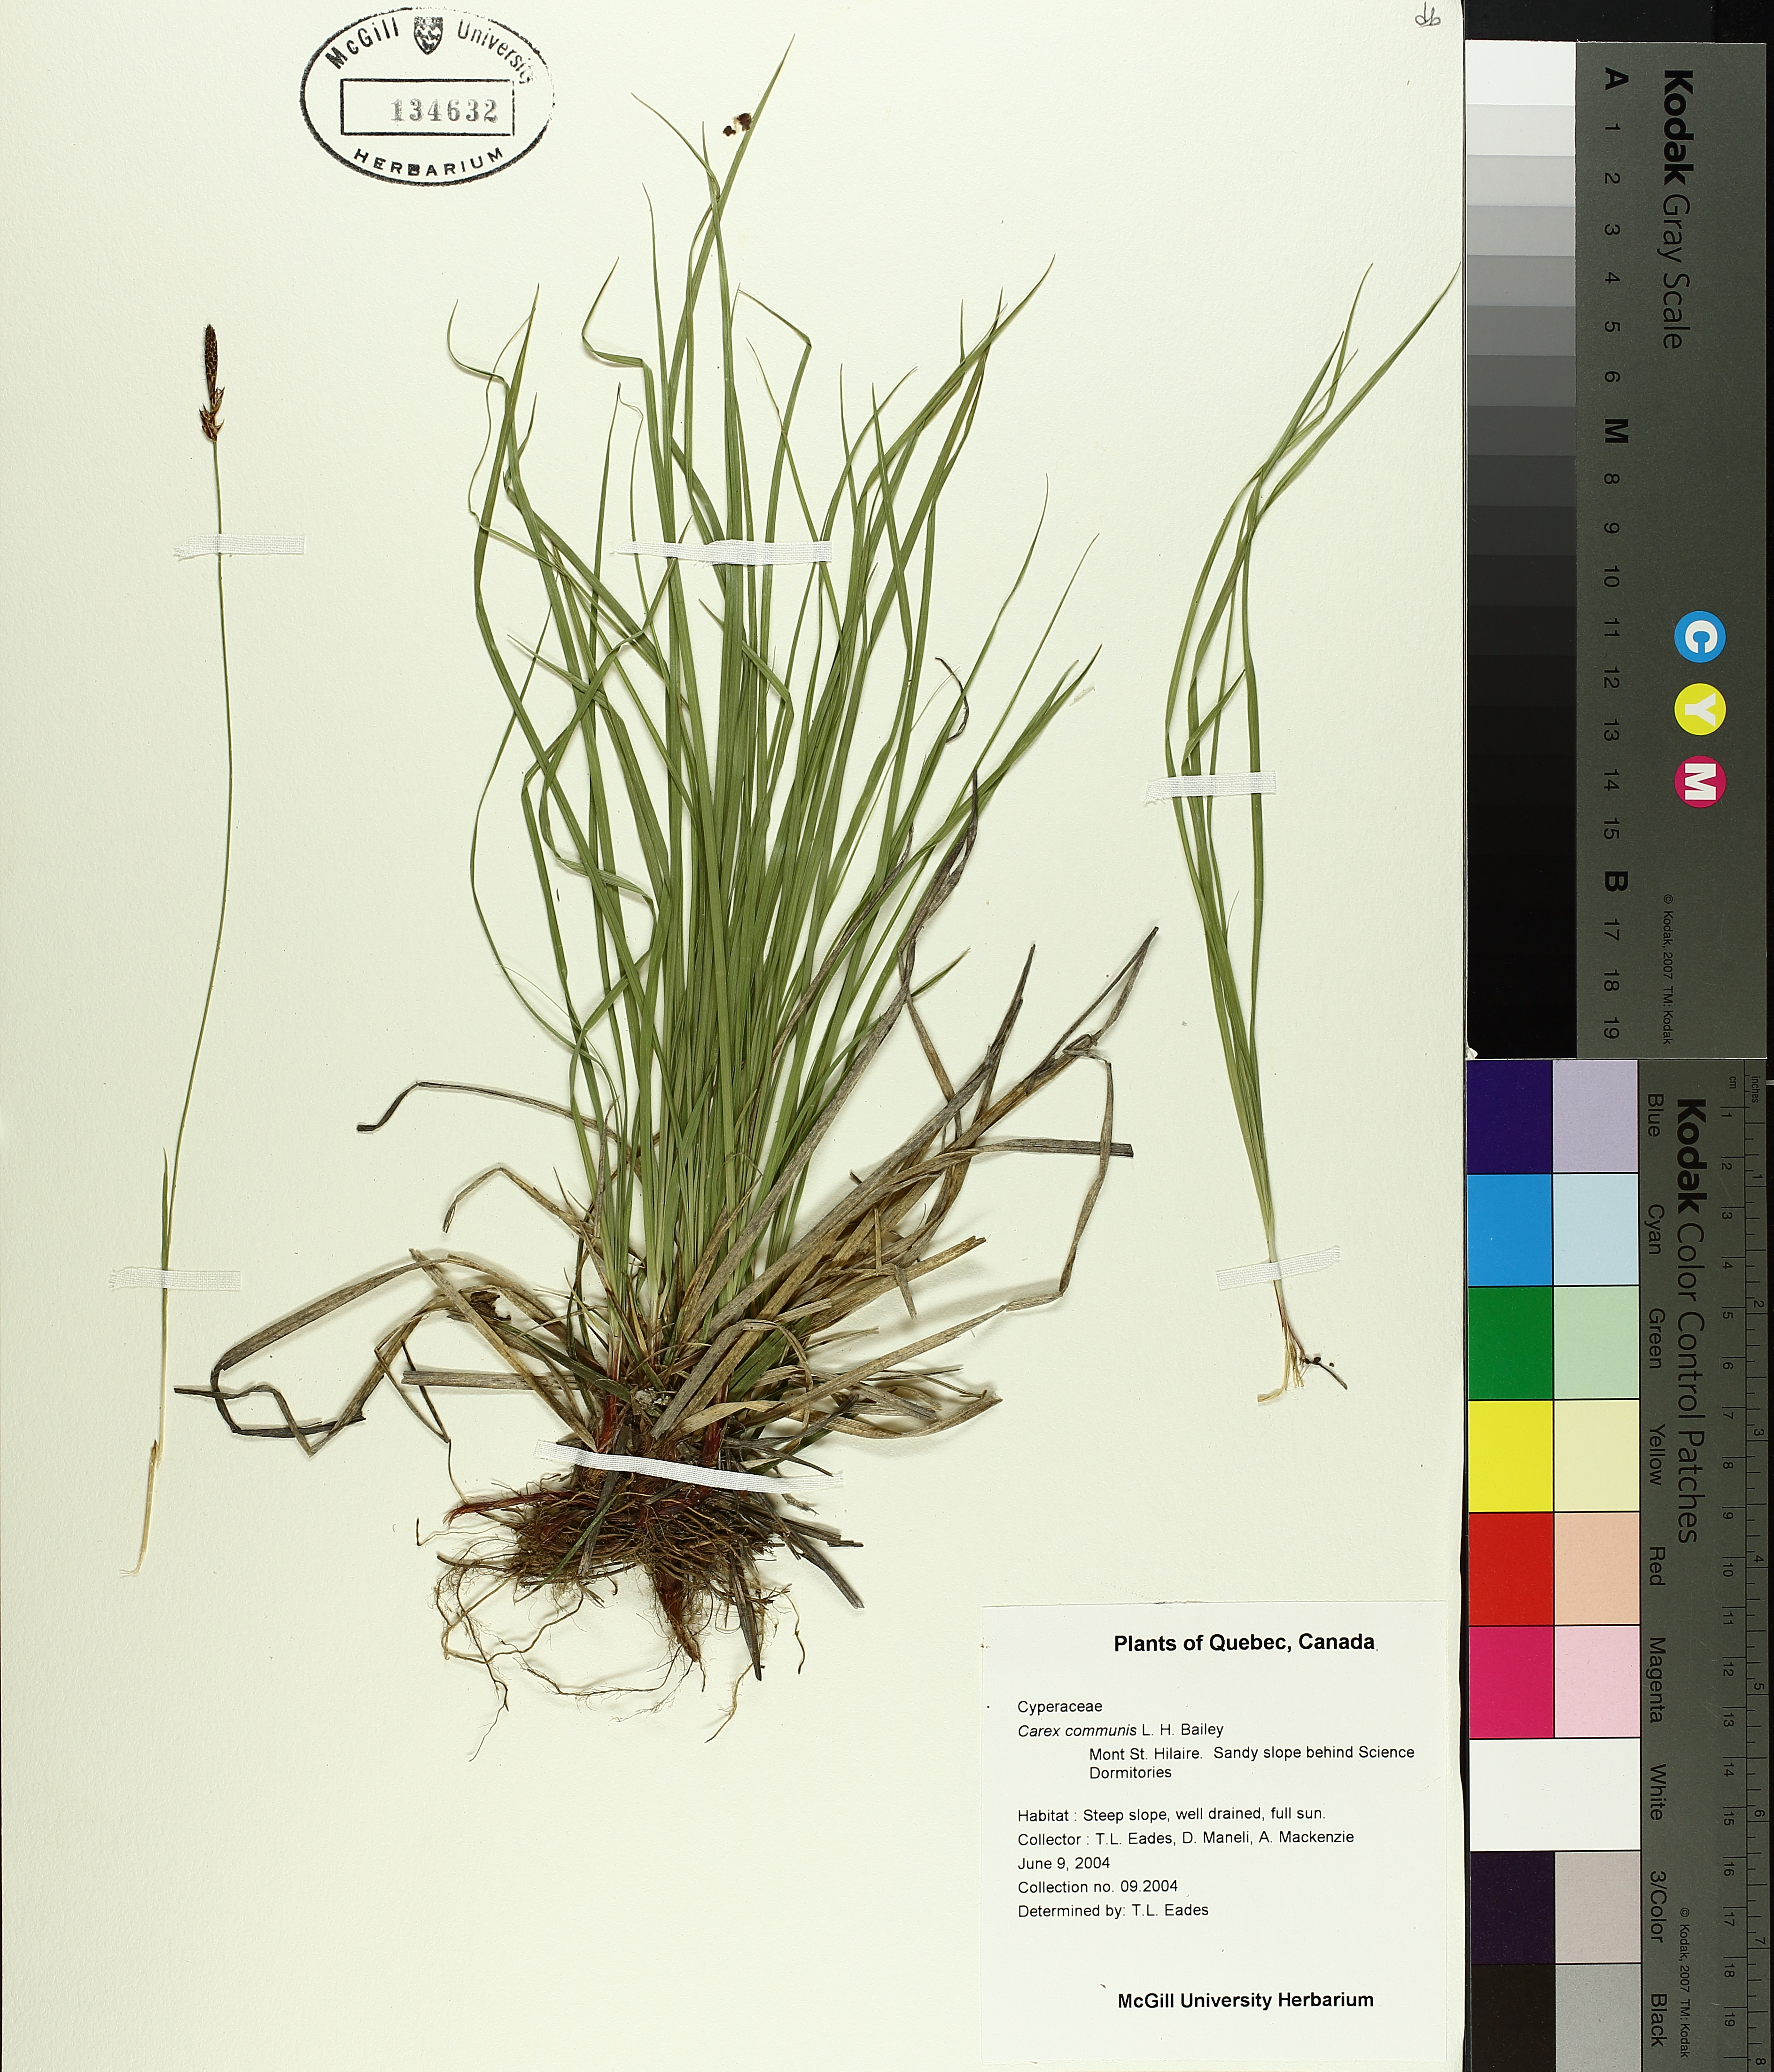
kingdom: Plantae
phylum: Tracheophyta
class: Liliopsida
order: Poales
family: Cyperaceae
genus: Carex
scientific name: Carex communis
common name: Colonial oak sedge
